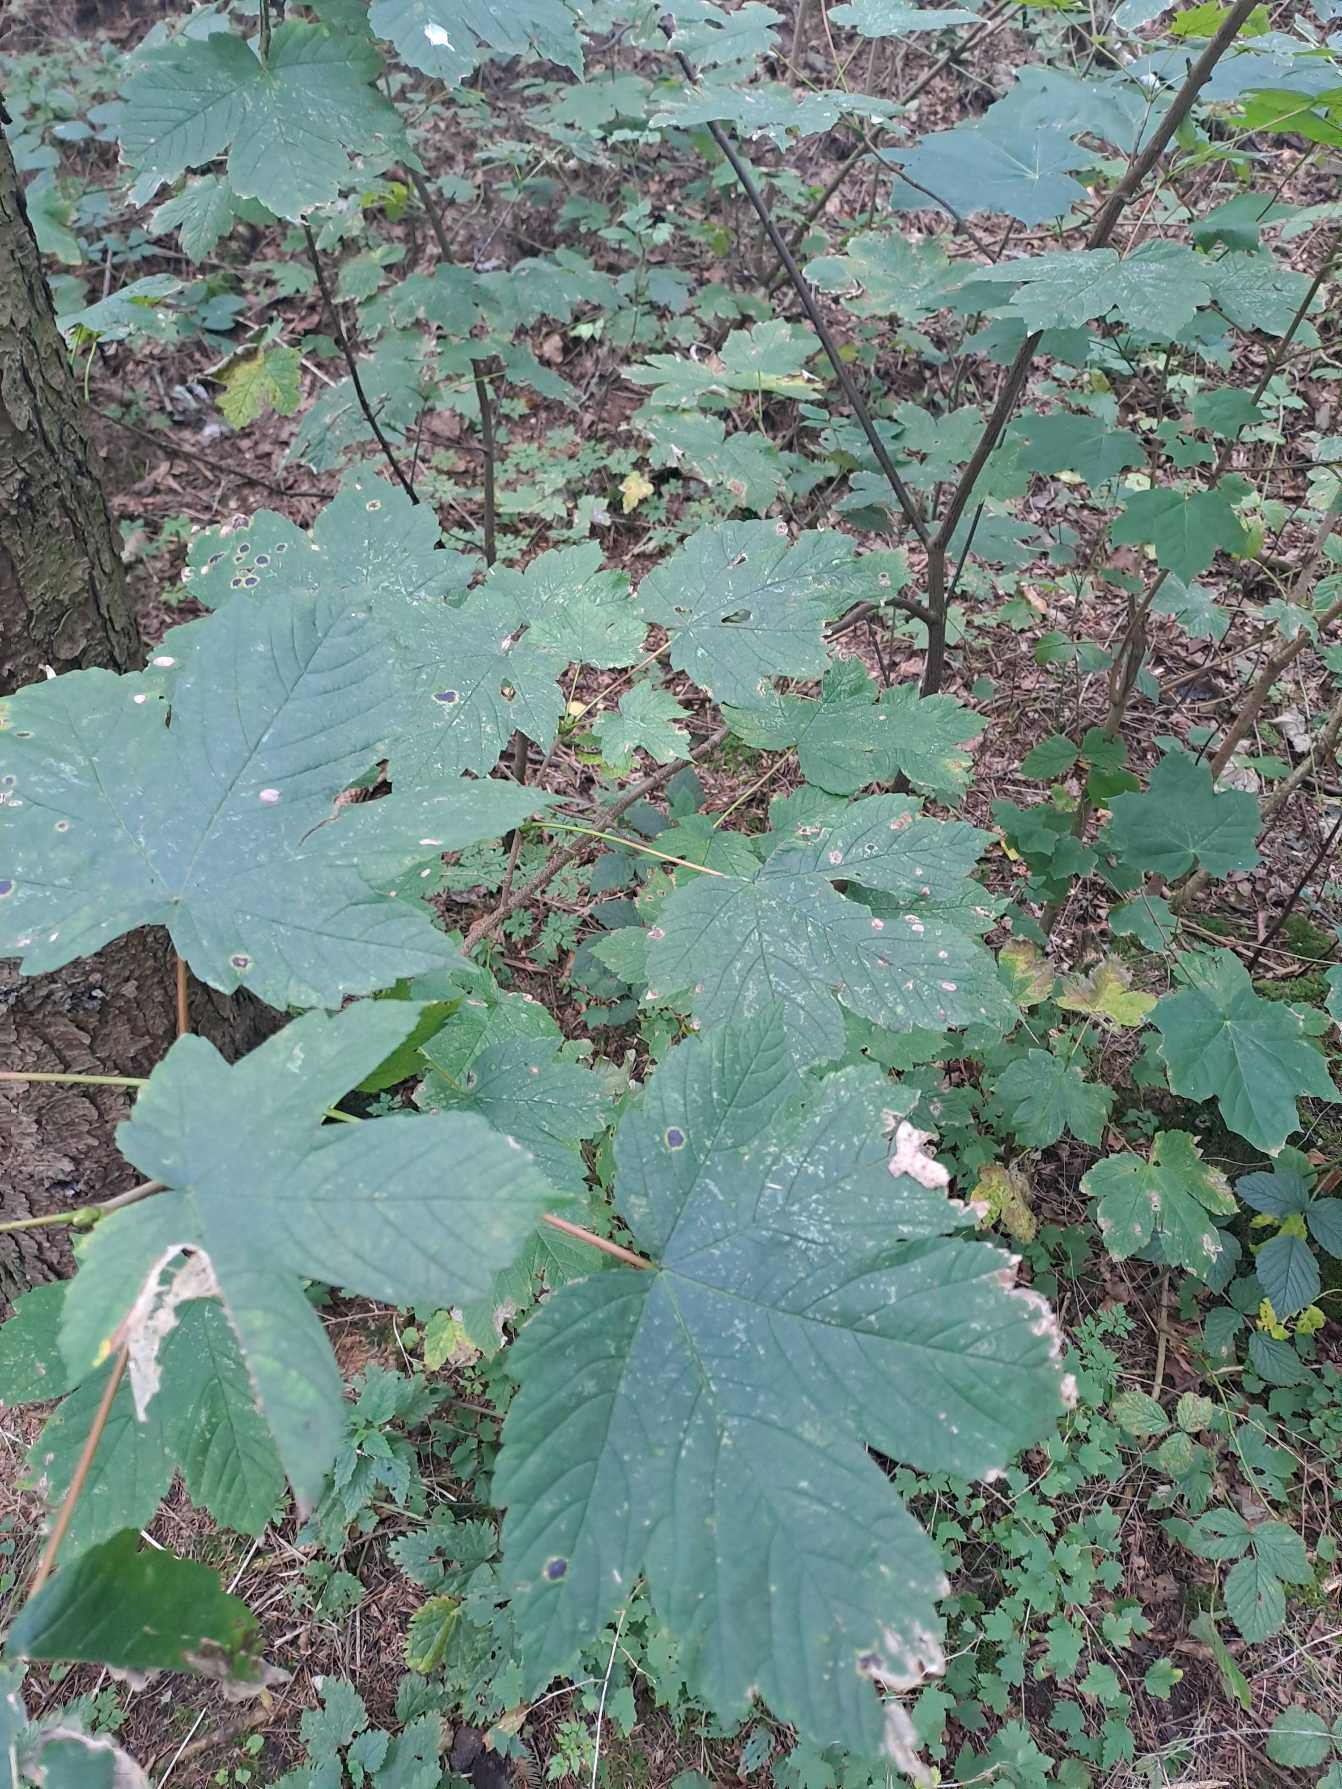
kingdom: Plantae
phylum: Tracheophyta
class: Magnoliopsida
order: Sapindales
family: Sapindaceae
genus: Acer
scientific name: Acer pseudoplatanus
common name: Ahorn
